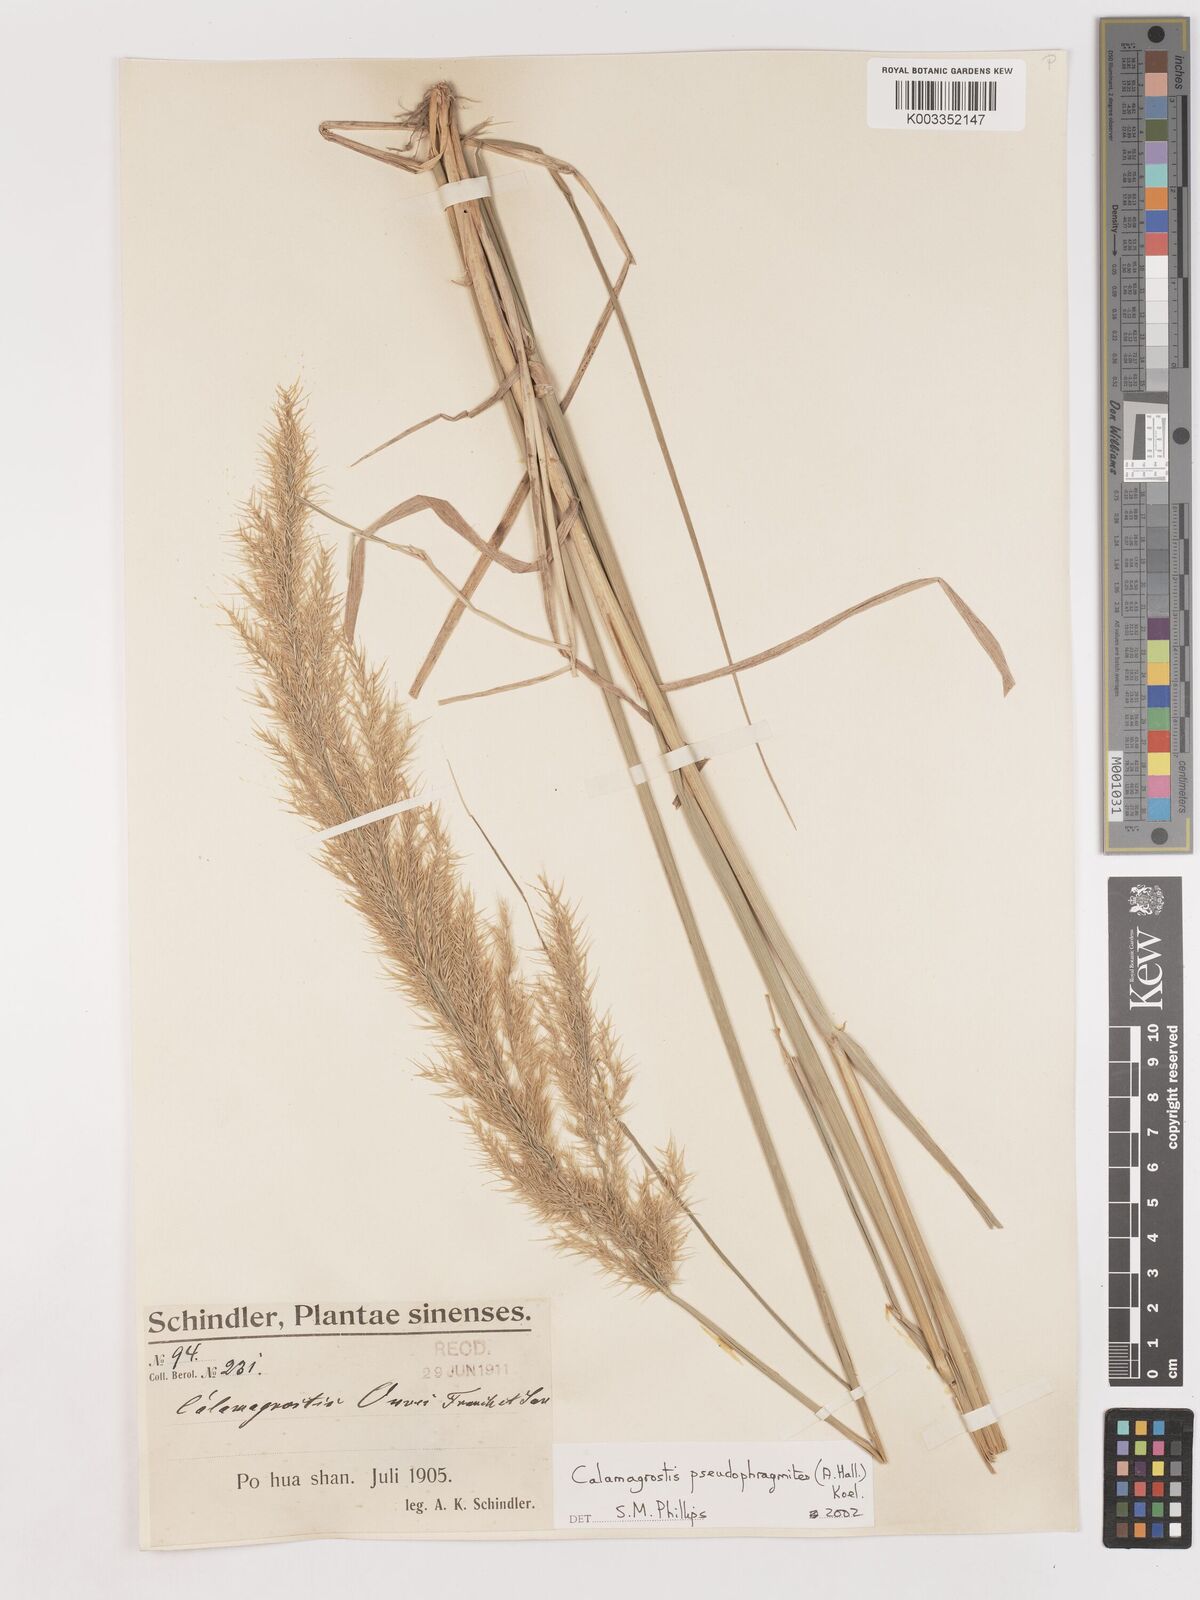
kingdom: Plantae
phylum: Tracheophyta
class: Liliopsida
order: Poales
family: Poaceae
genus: Calamagrostis
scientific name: Calamagrostis pseudophragmites
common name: Coastal small-reed
